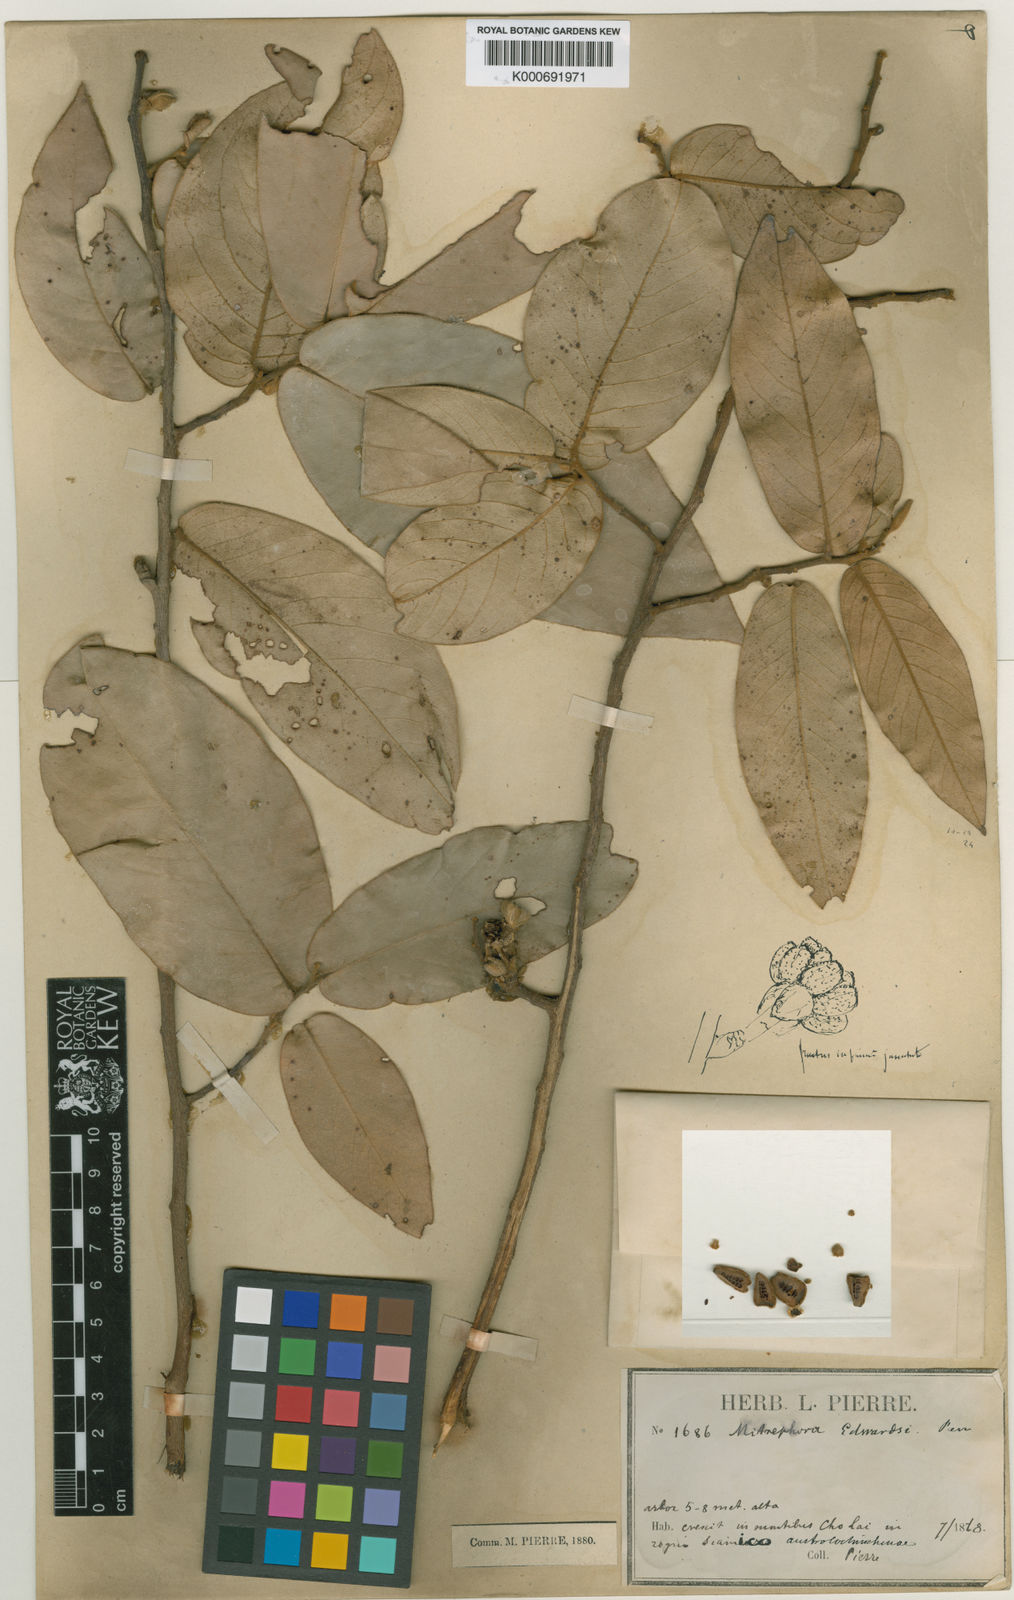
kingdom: Plantae
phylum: Tracheophyta
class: Magnoliopsida
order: Magnoliales
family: Annonaceae
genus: Mitrephora
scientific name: Mitrephora tomentosa
